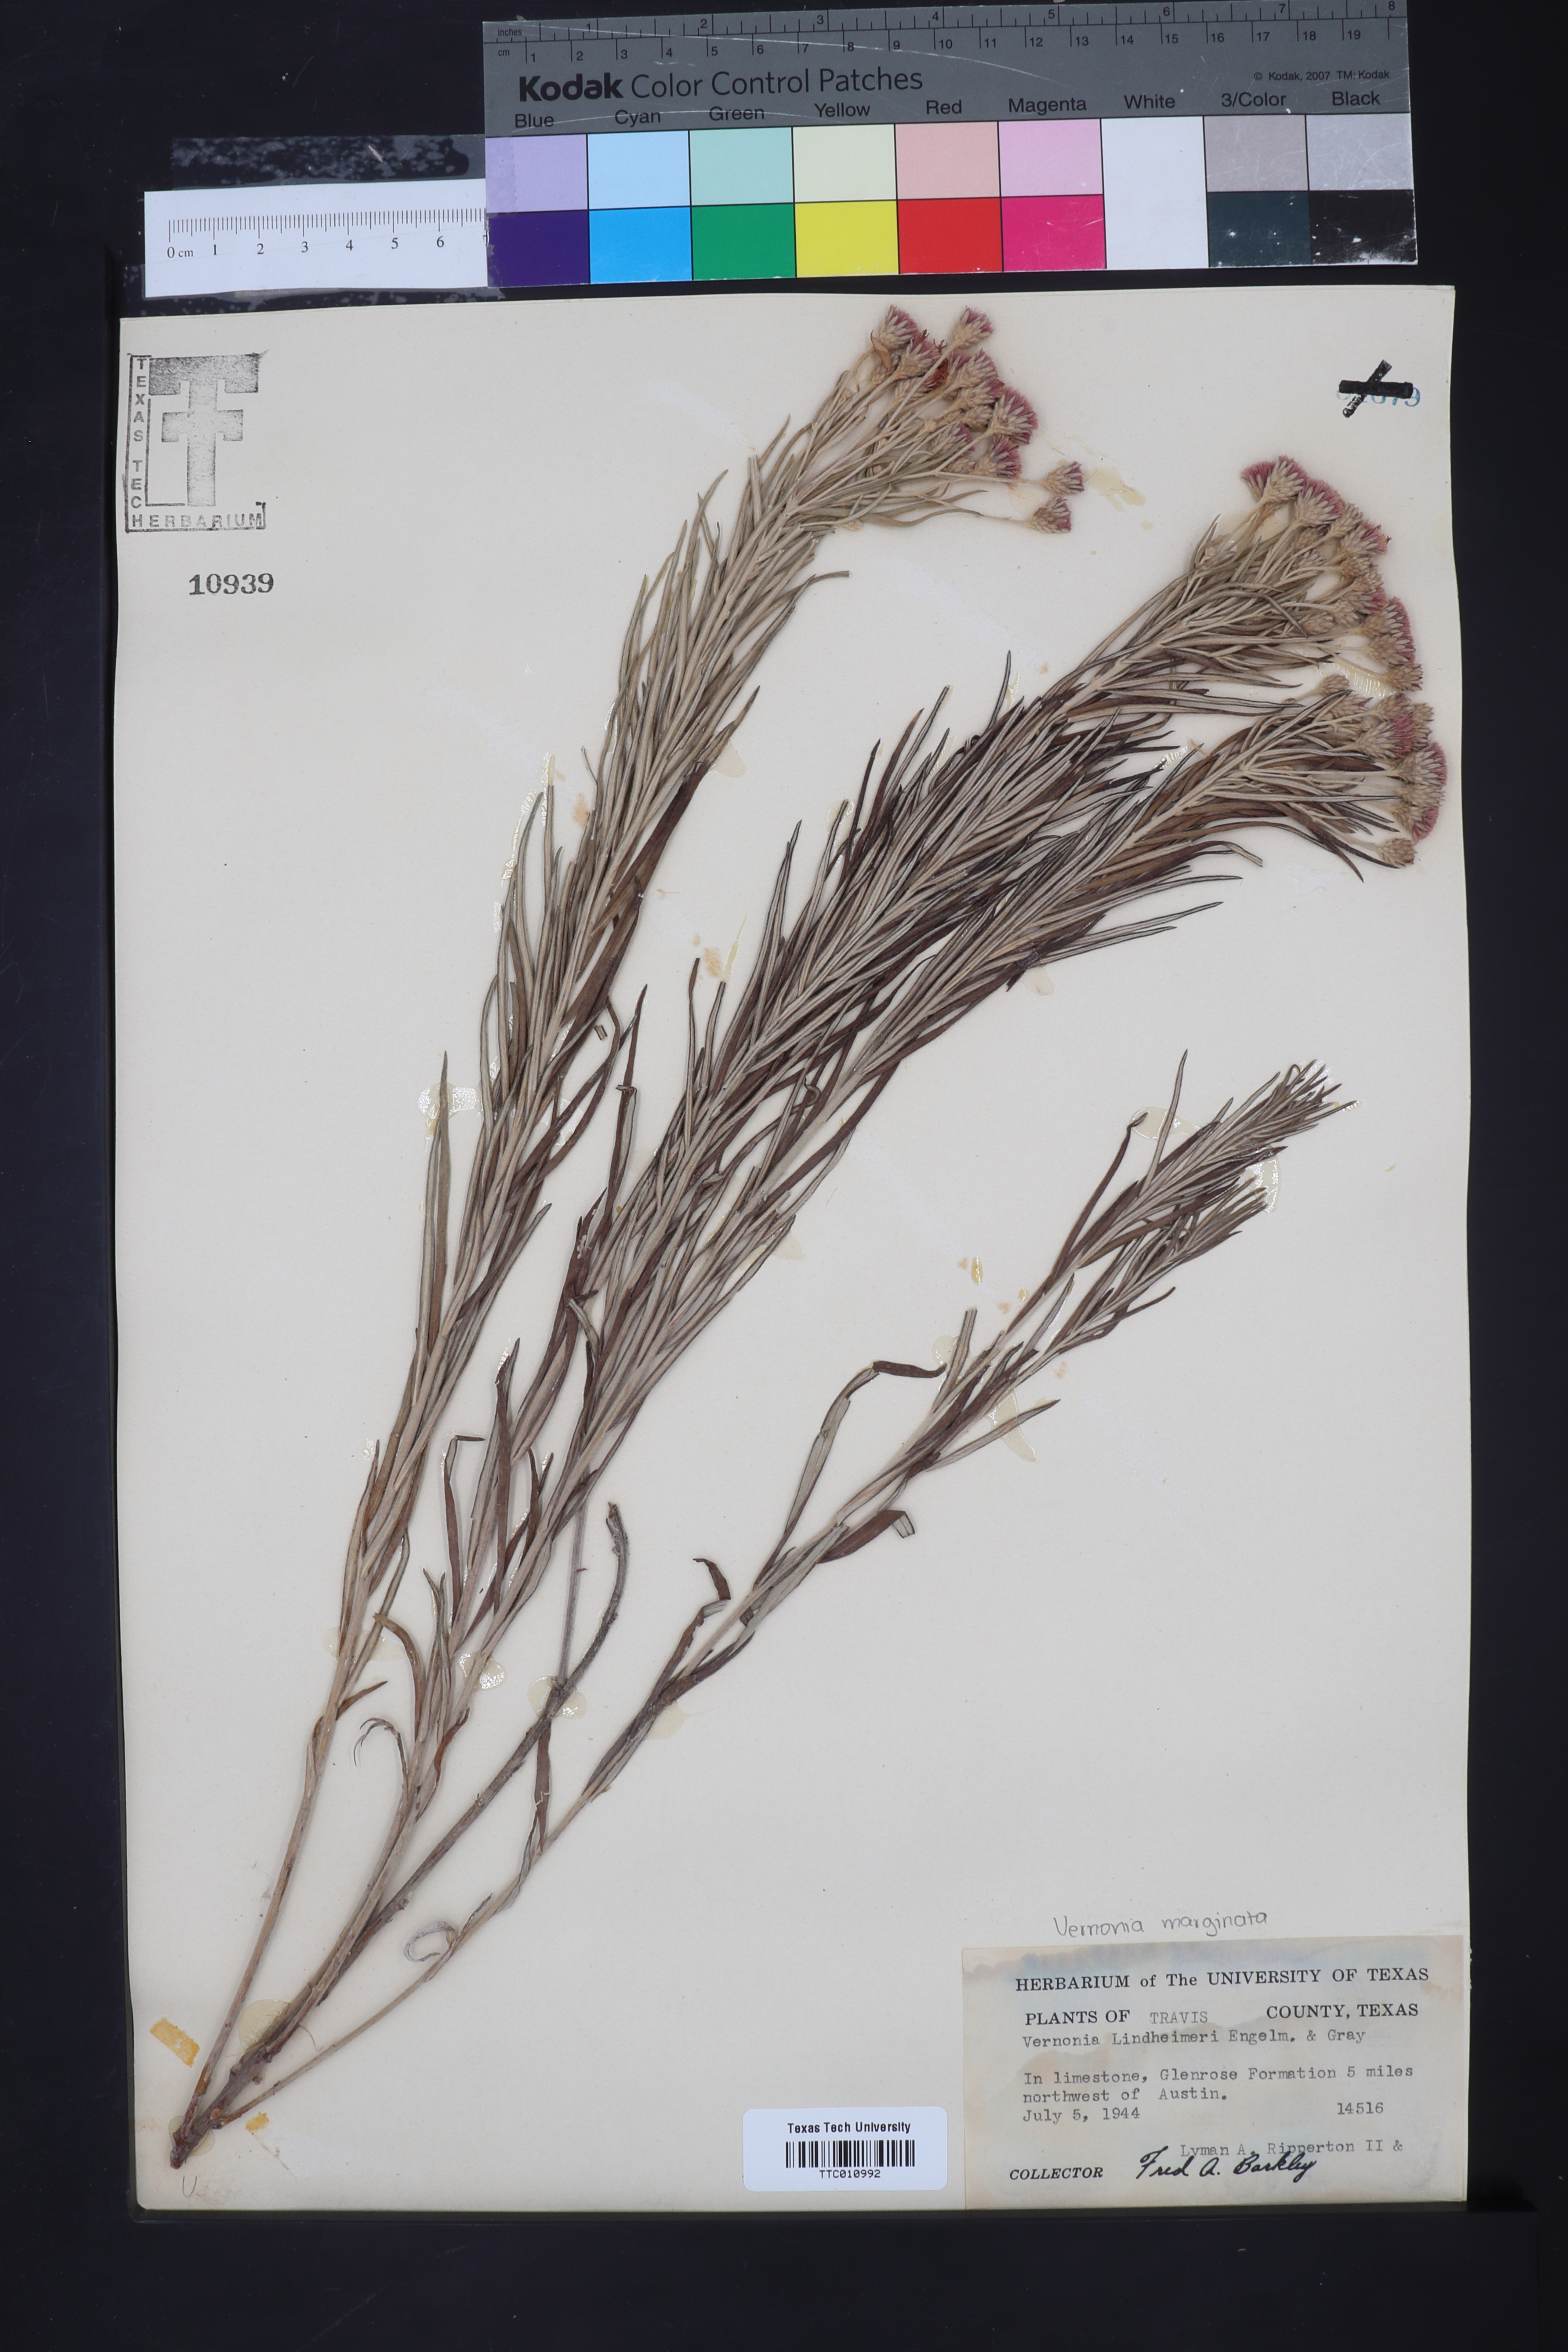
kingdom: Plantae
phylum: Tracheophyta
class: Magnoliopsida
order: Asterales
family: Asteraceae
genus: Vernonia
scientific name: Vernonia lindheimeri
